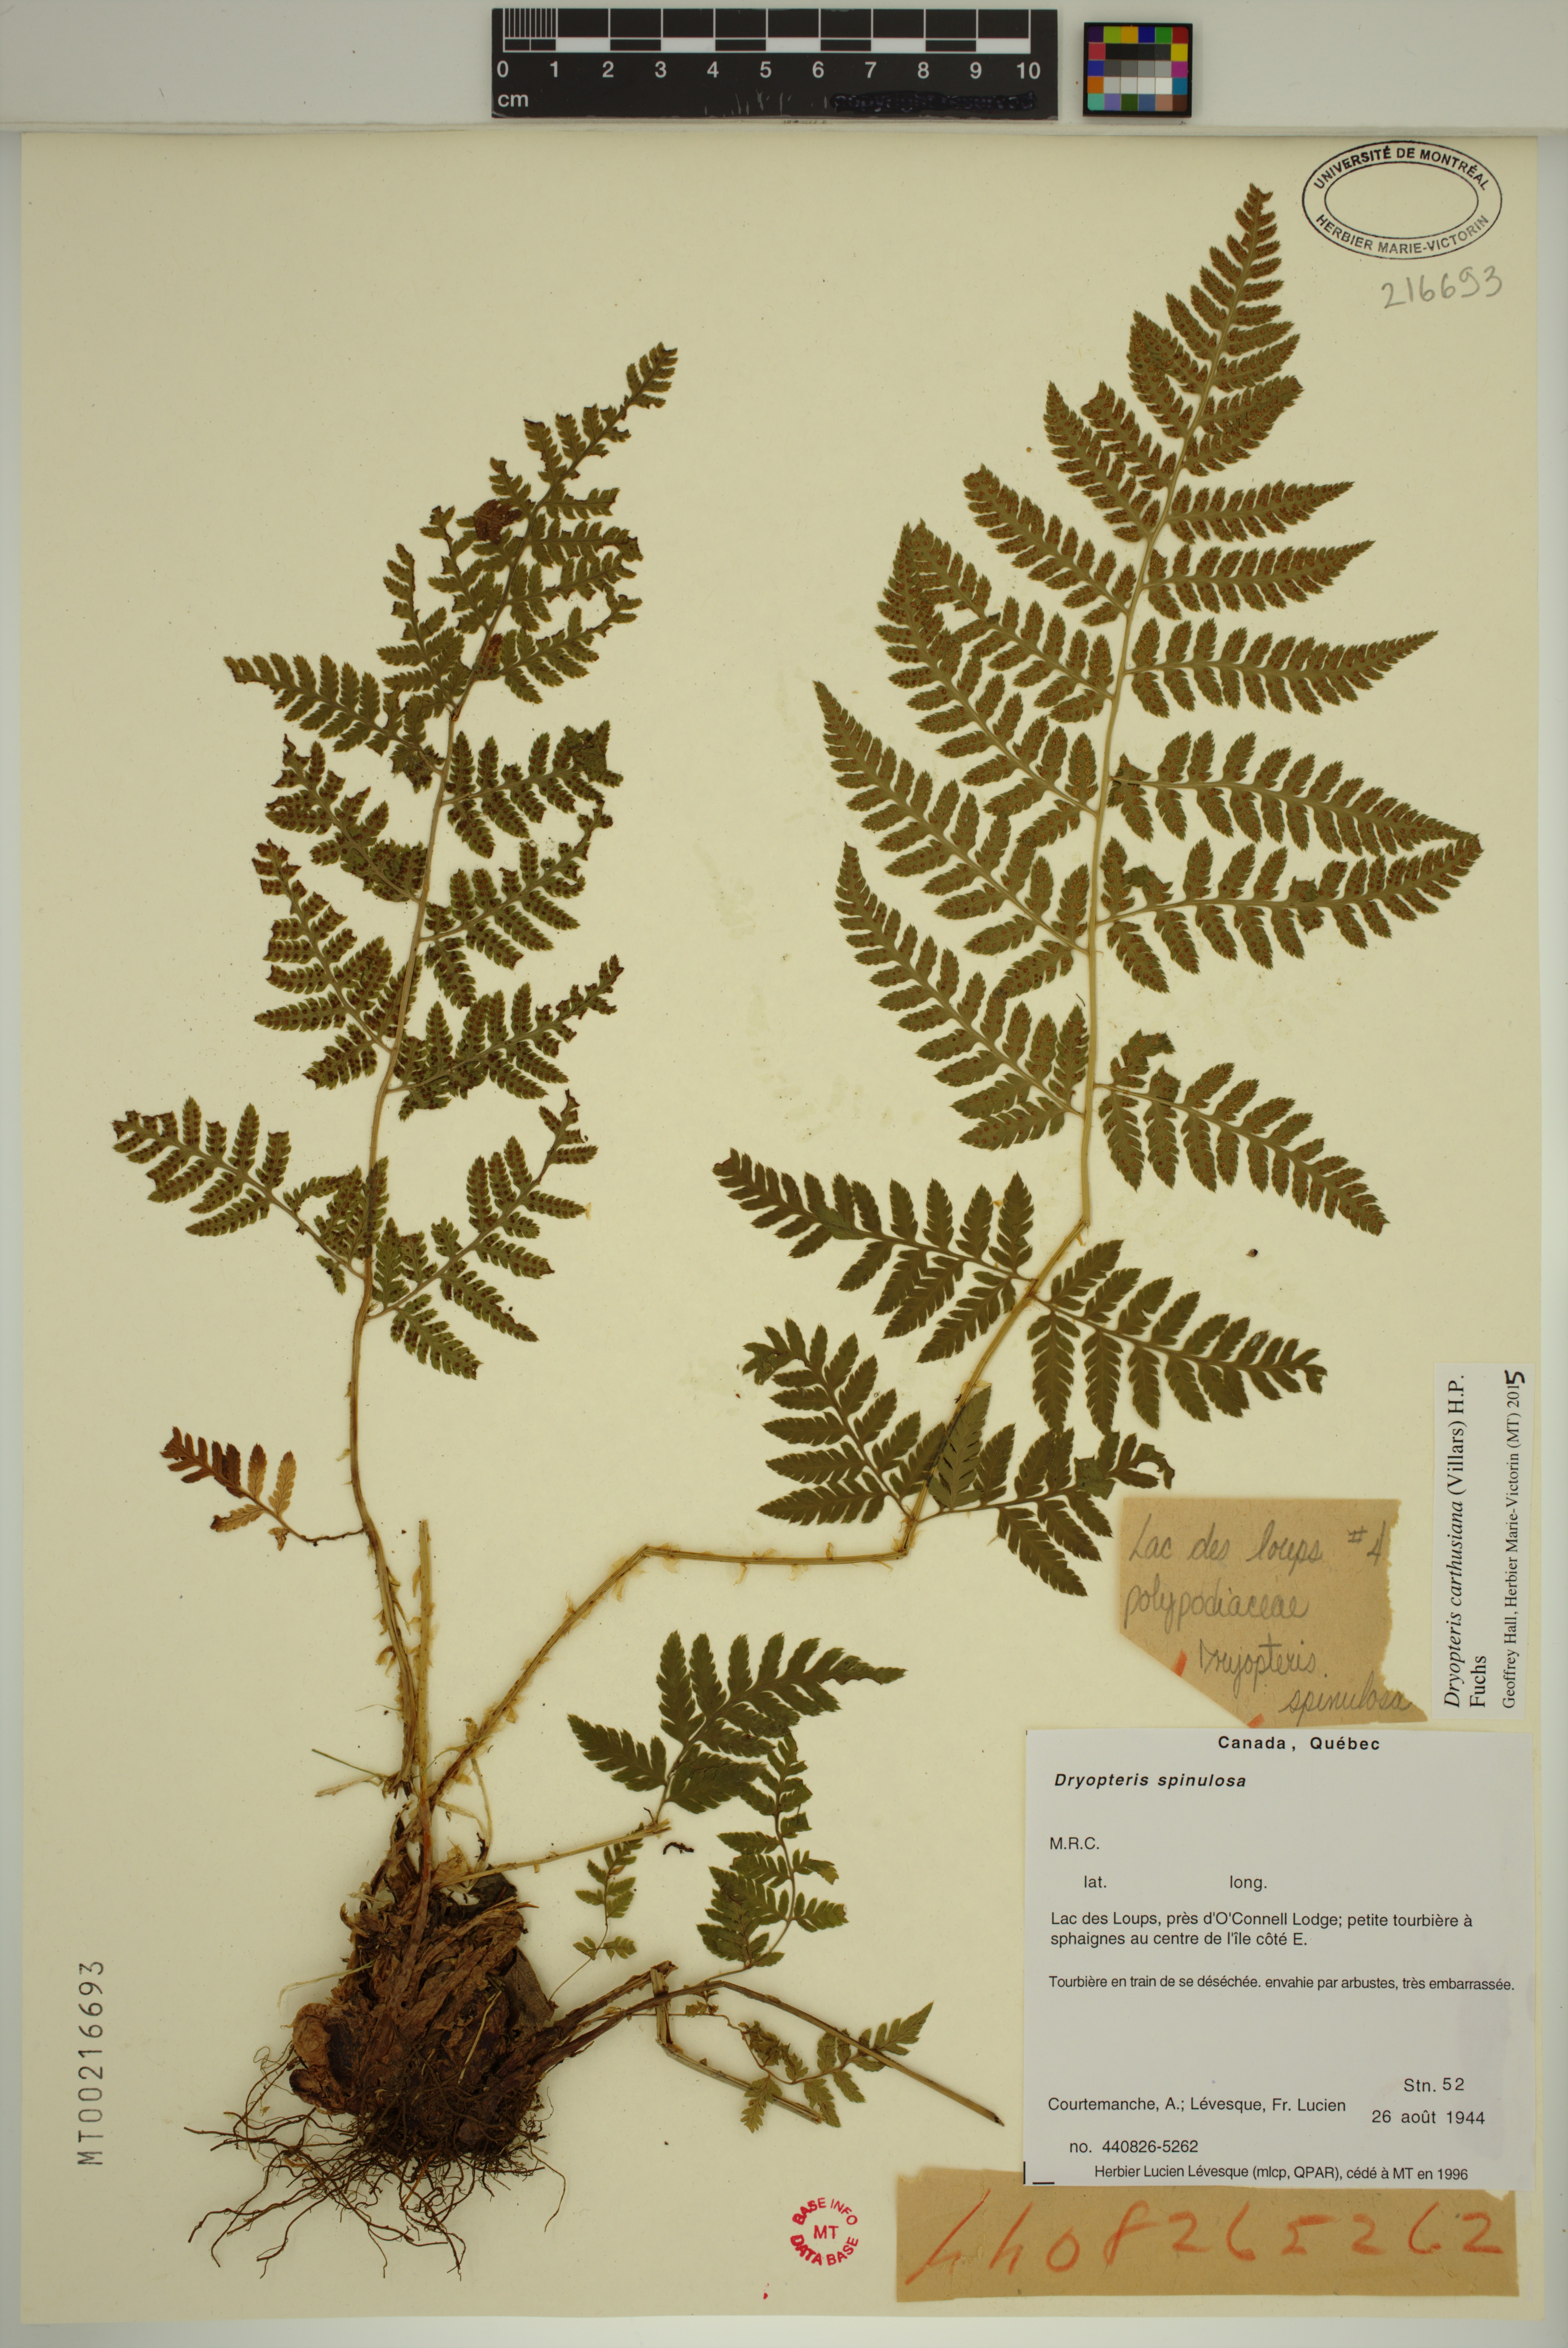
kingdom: Plantae
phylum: Tracheophyta
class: Polypodiopsida
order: Polypodiales
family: Dryopteridaceae
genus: Dryopteris
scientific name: Dryopteris carthusiana
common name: Narrow buckler-fern
